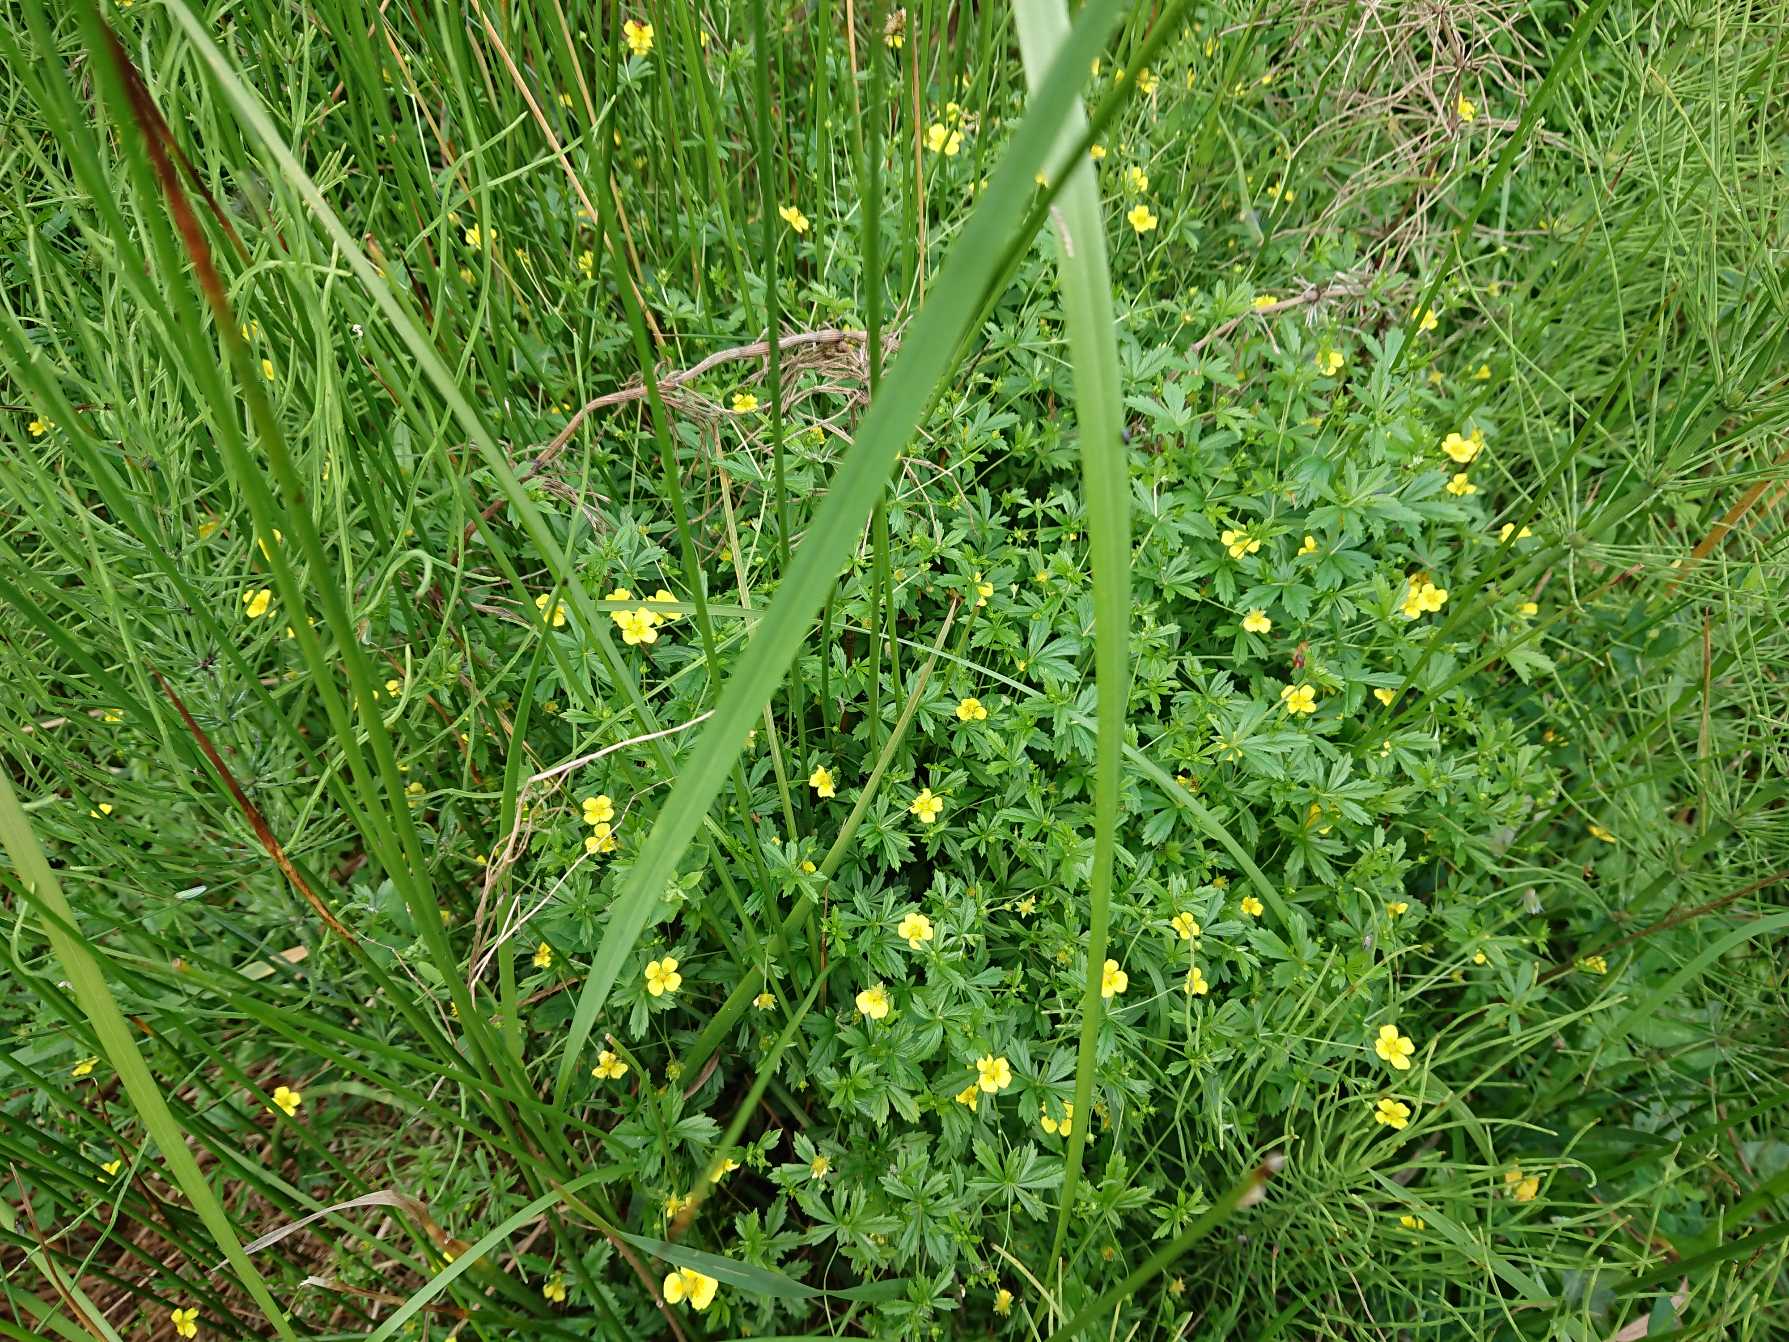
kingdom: Plantae
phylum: Tracheophyta
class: Magnoliopsida
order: Rosales
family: Rosaceae
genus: Potentilla
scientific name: Potentilla erecta
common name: Tormentil
